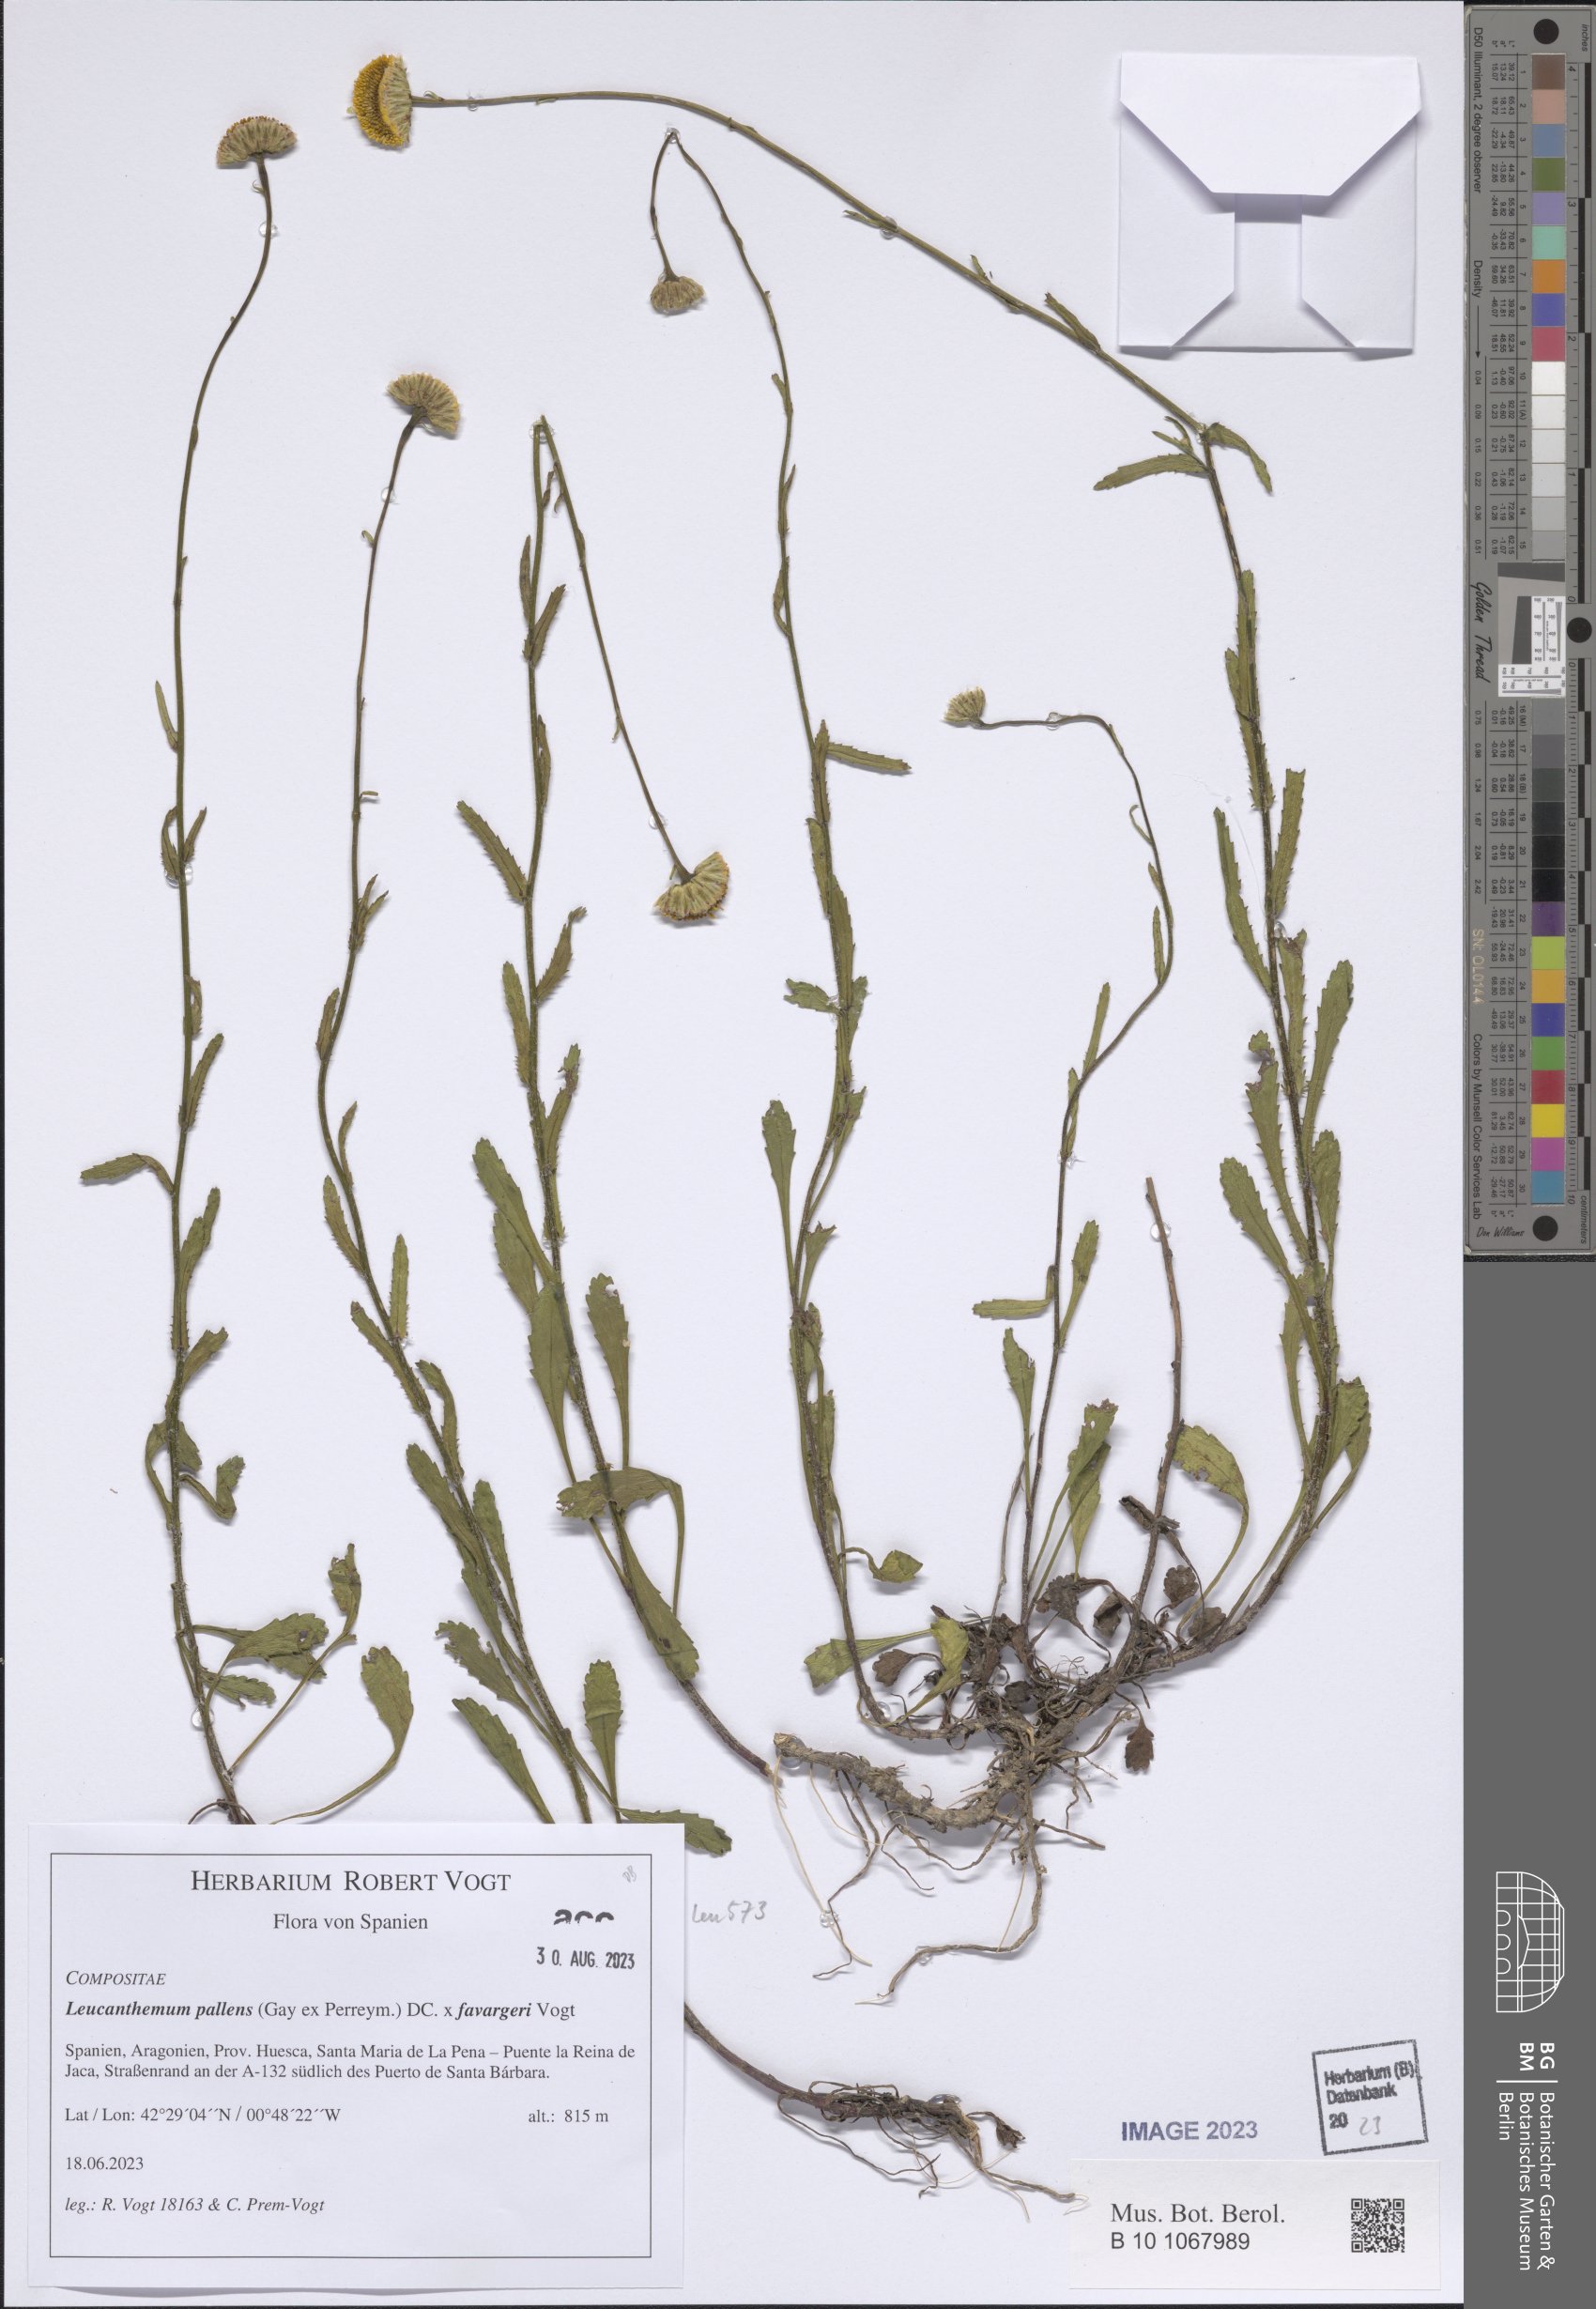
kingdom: Plantae
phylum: Tracheophyta
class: Magnoliopsida
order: Asterales
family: Asteraceae
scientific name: Asteraceae
